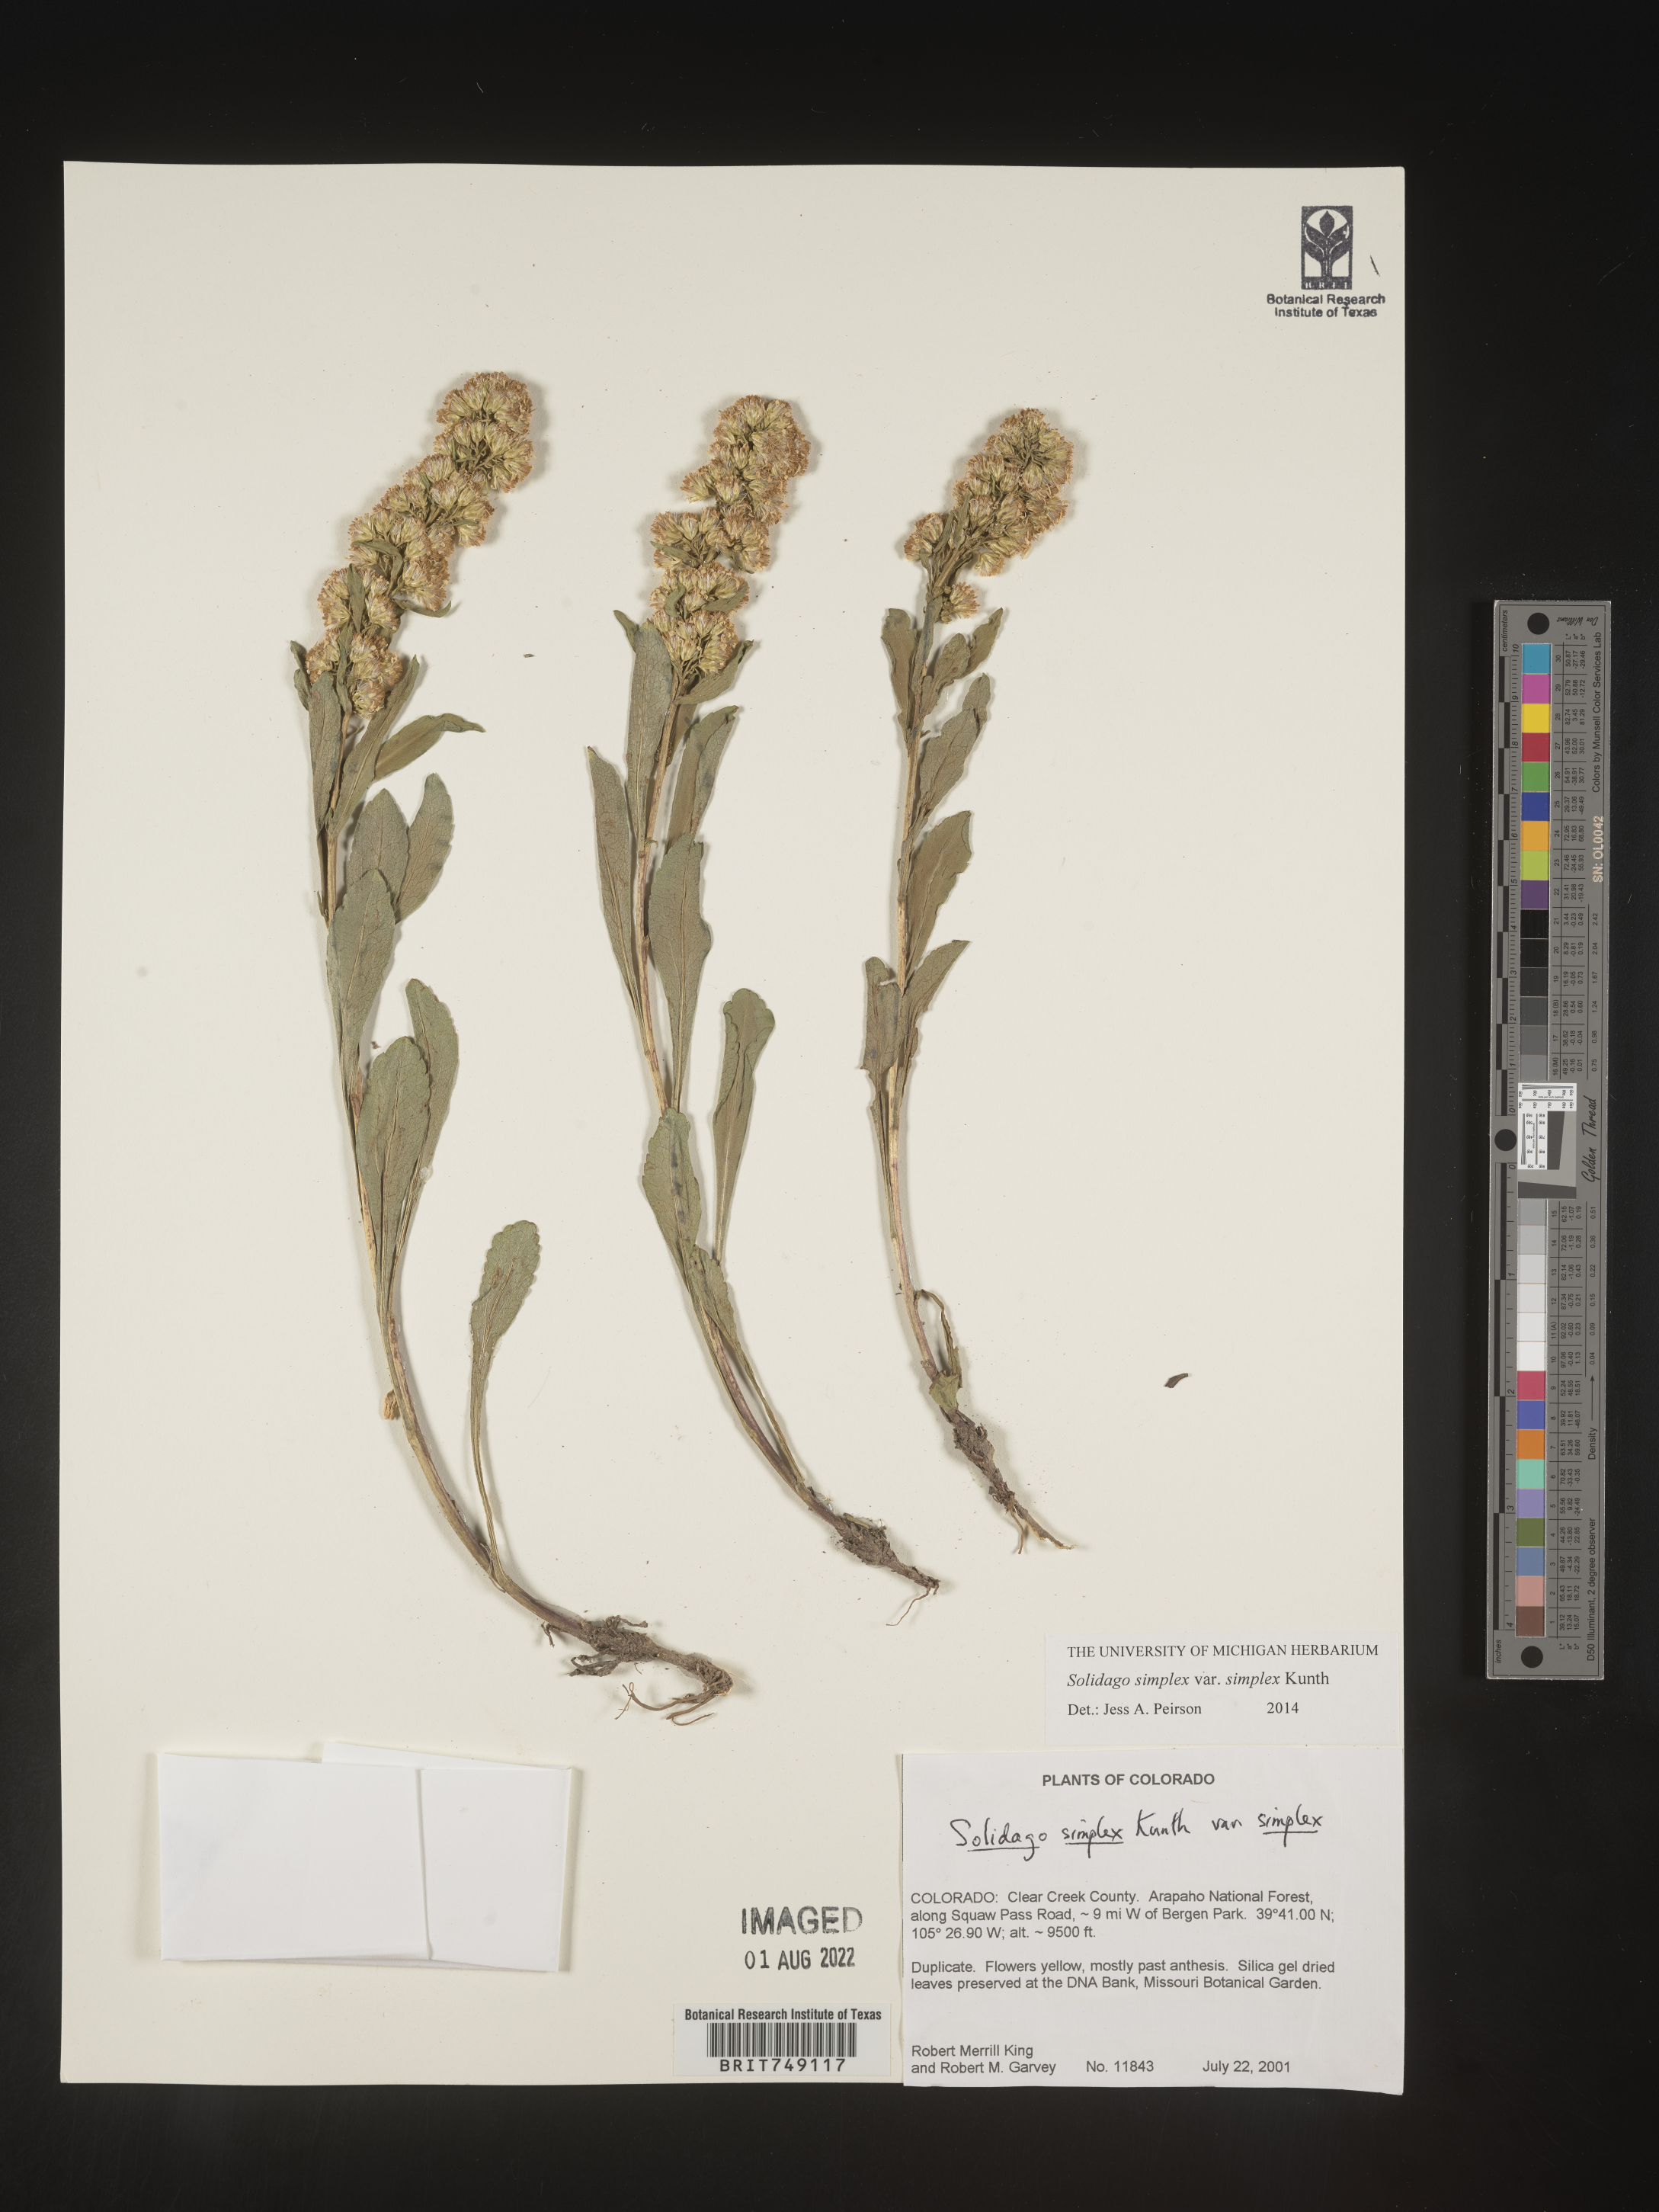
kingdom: Plantae
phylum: Tracheophyta
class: Magnoliopsida
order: Asterales
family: Asteraceae
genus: Solidago
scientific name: Solidago simplex
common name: Sticky goldenrod
